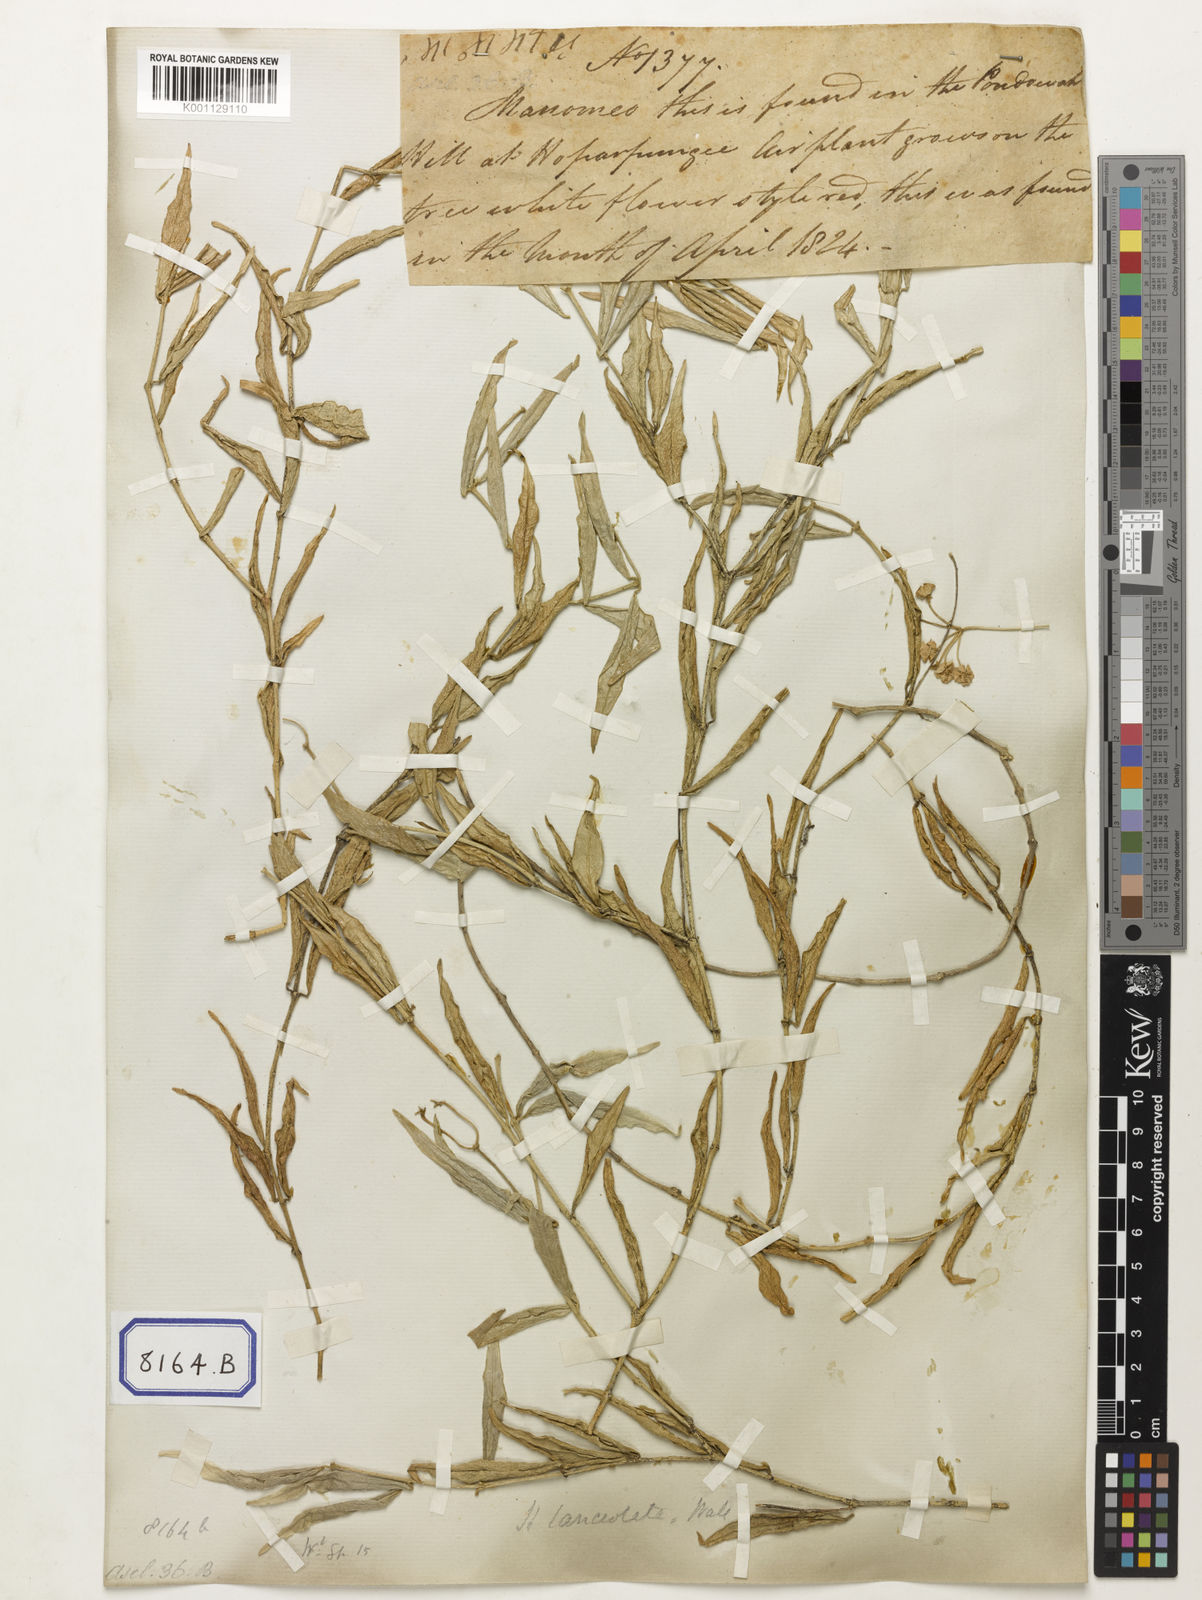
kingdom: Plantae
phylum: Tracheophyta
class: Magnoliopsida
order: Gentianales
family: Apocynaceae
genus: Hoya
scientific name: Hoya
